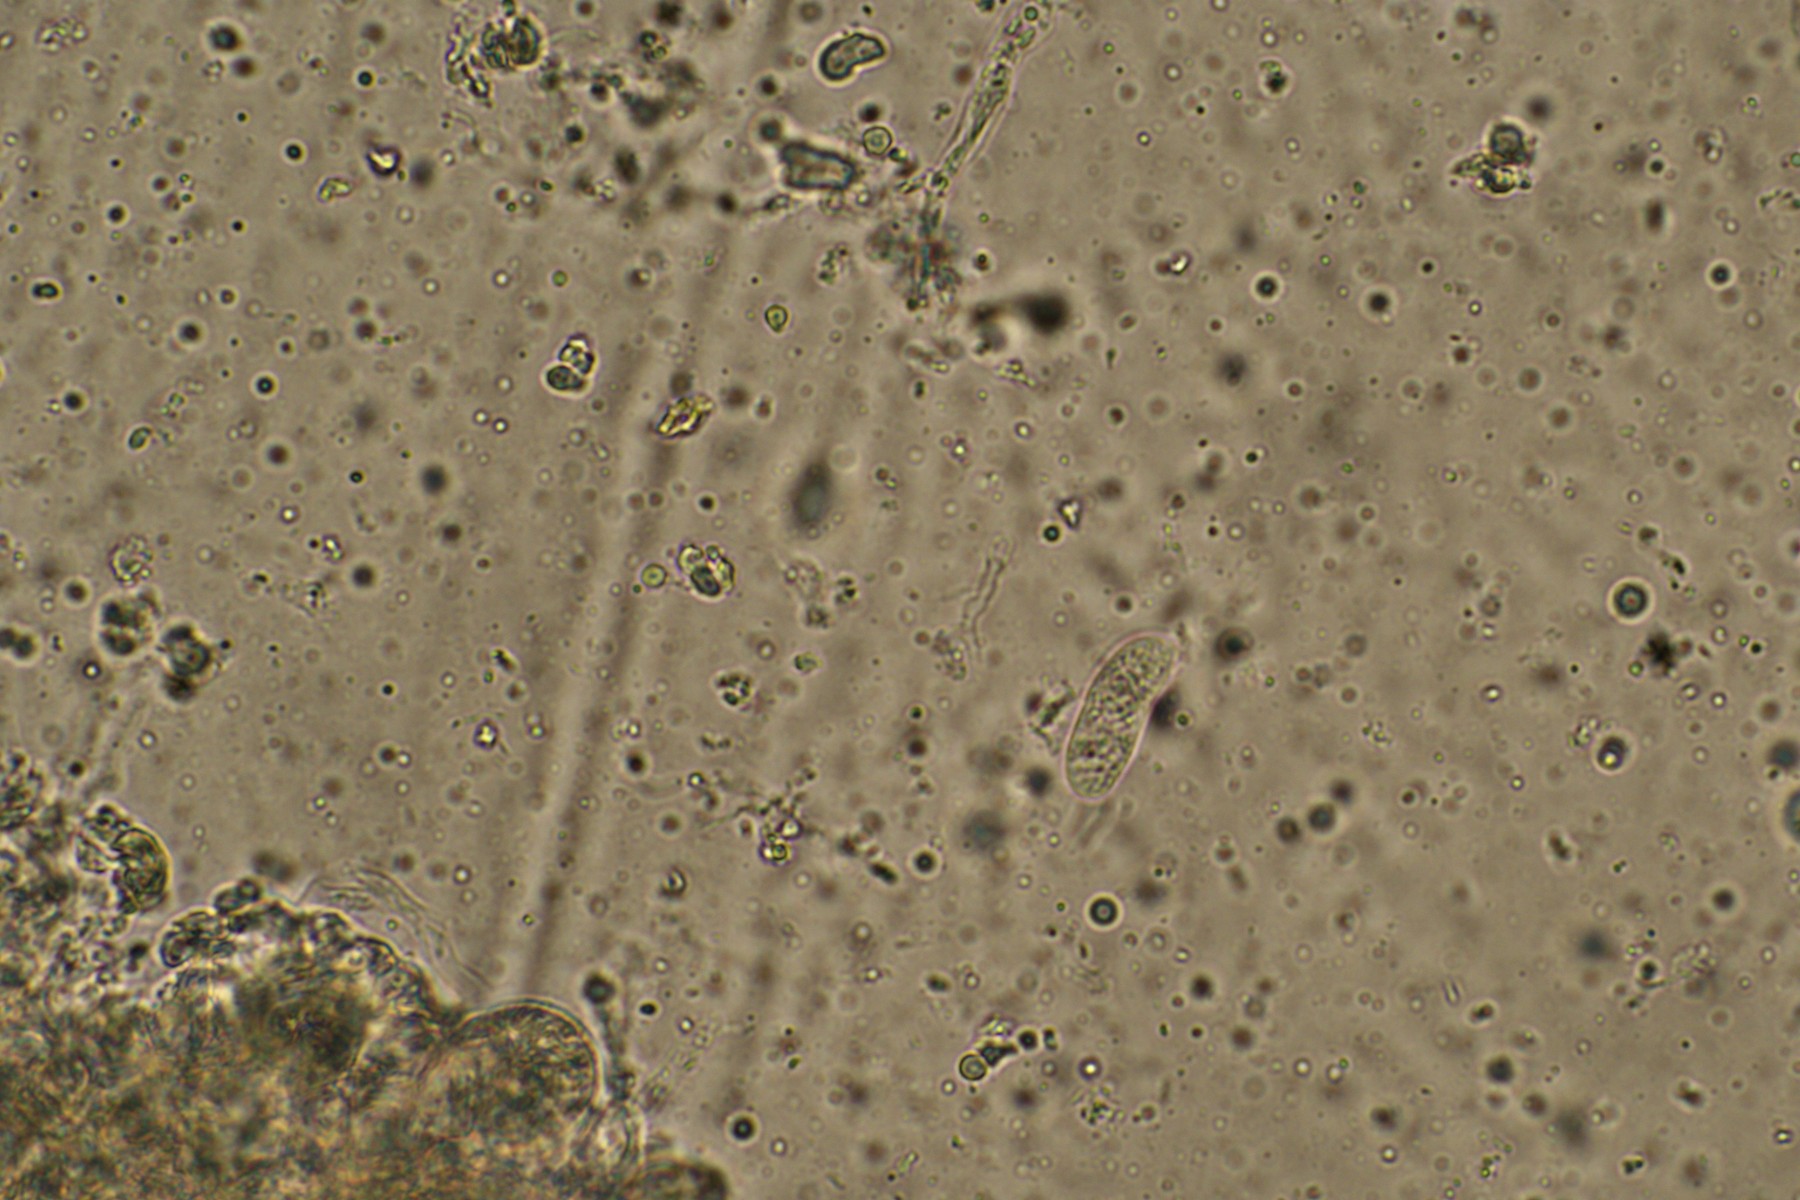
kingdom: Fungi
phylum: Basidiomycota
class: Agaricomycetes
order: Corticiales
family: Vuilleminiaceae
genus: Vuilleminia
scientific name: Vuilleminia coryli
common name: hassel-barksprænger
